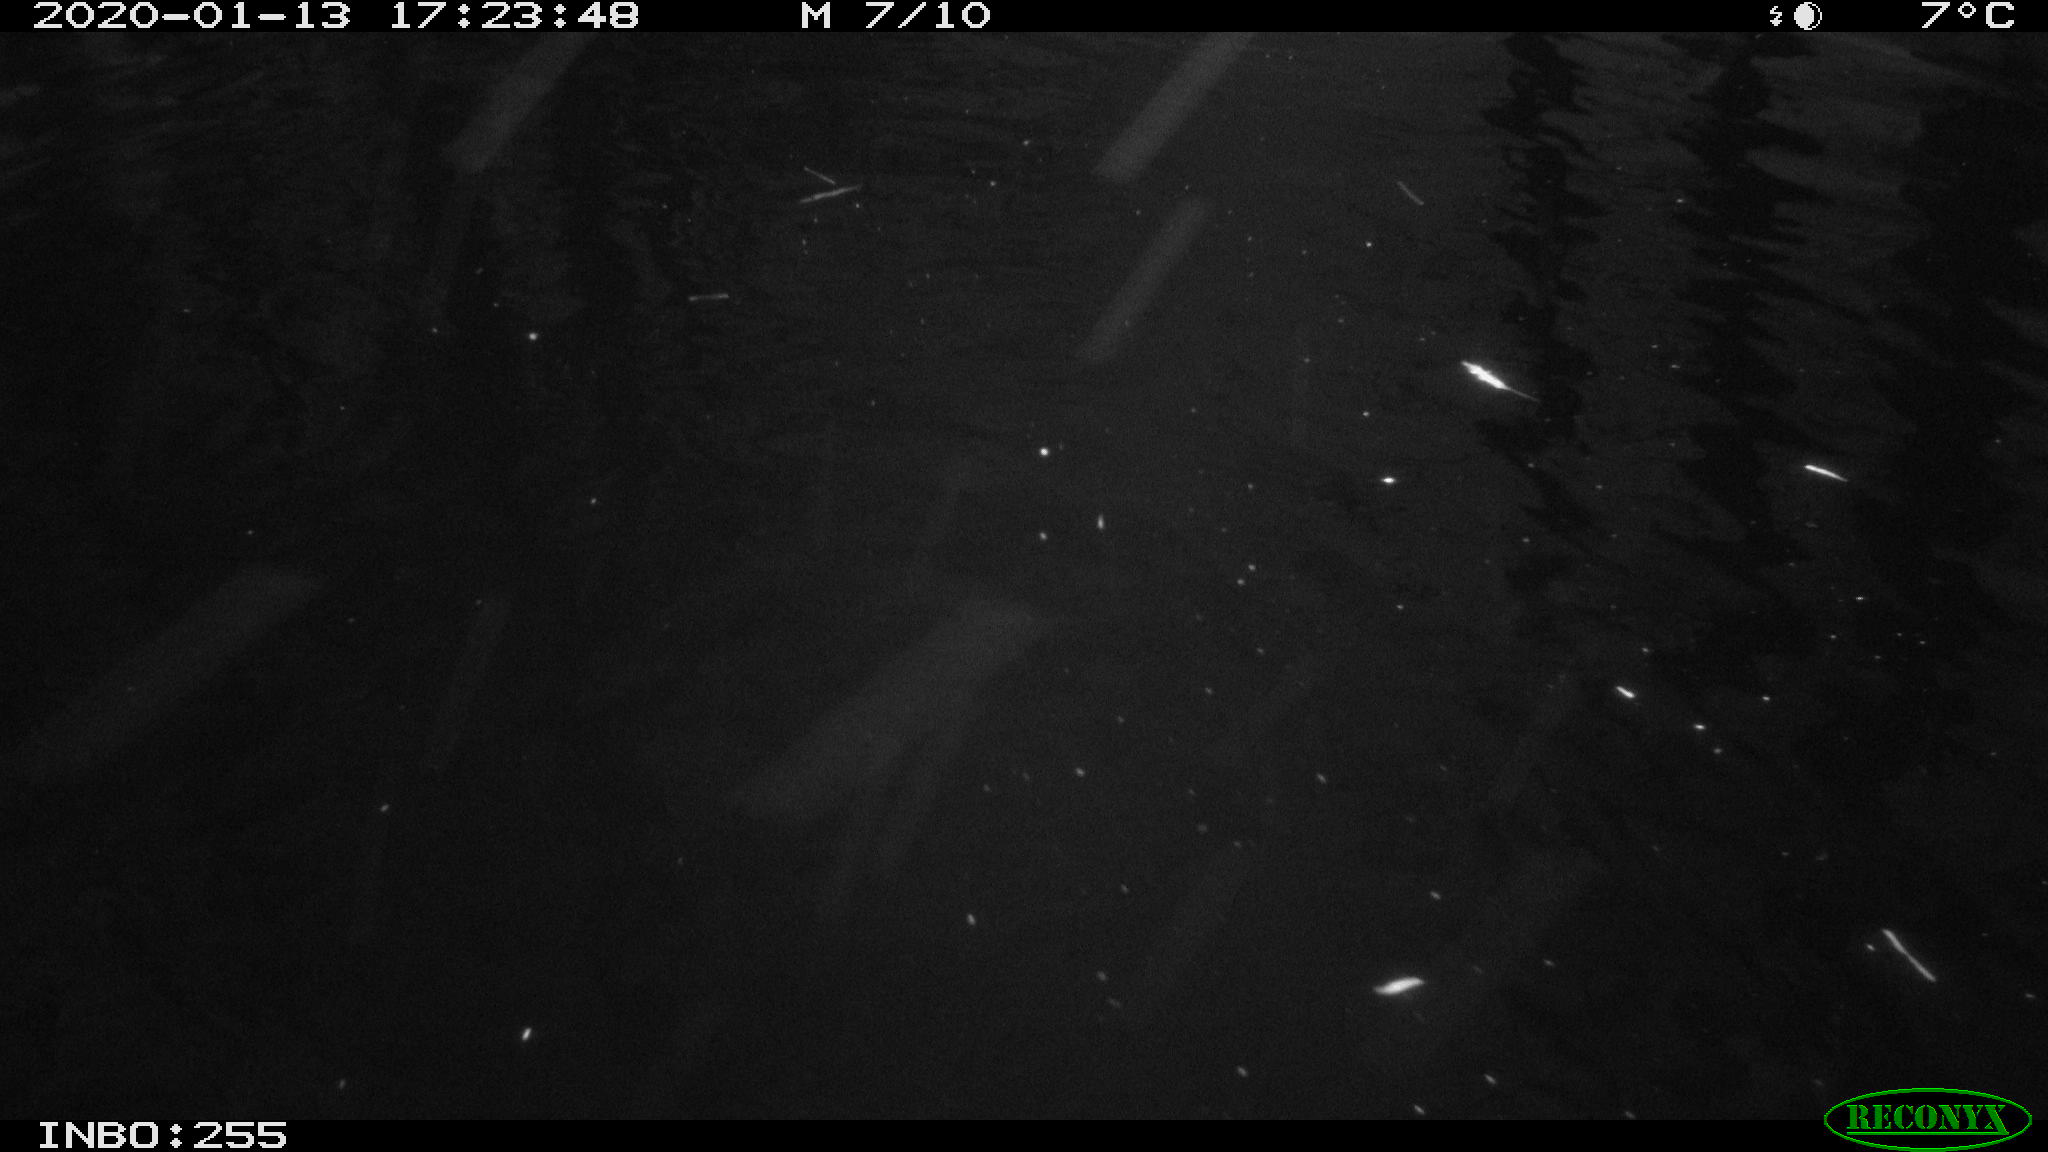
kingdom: Animalia
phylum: Chordata
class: Aves
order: Anseriformes
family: Anatidae
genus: Anas
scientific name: Anas platyrhynchos
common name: Mallard
